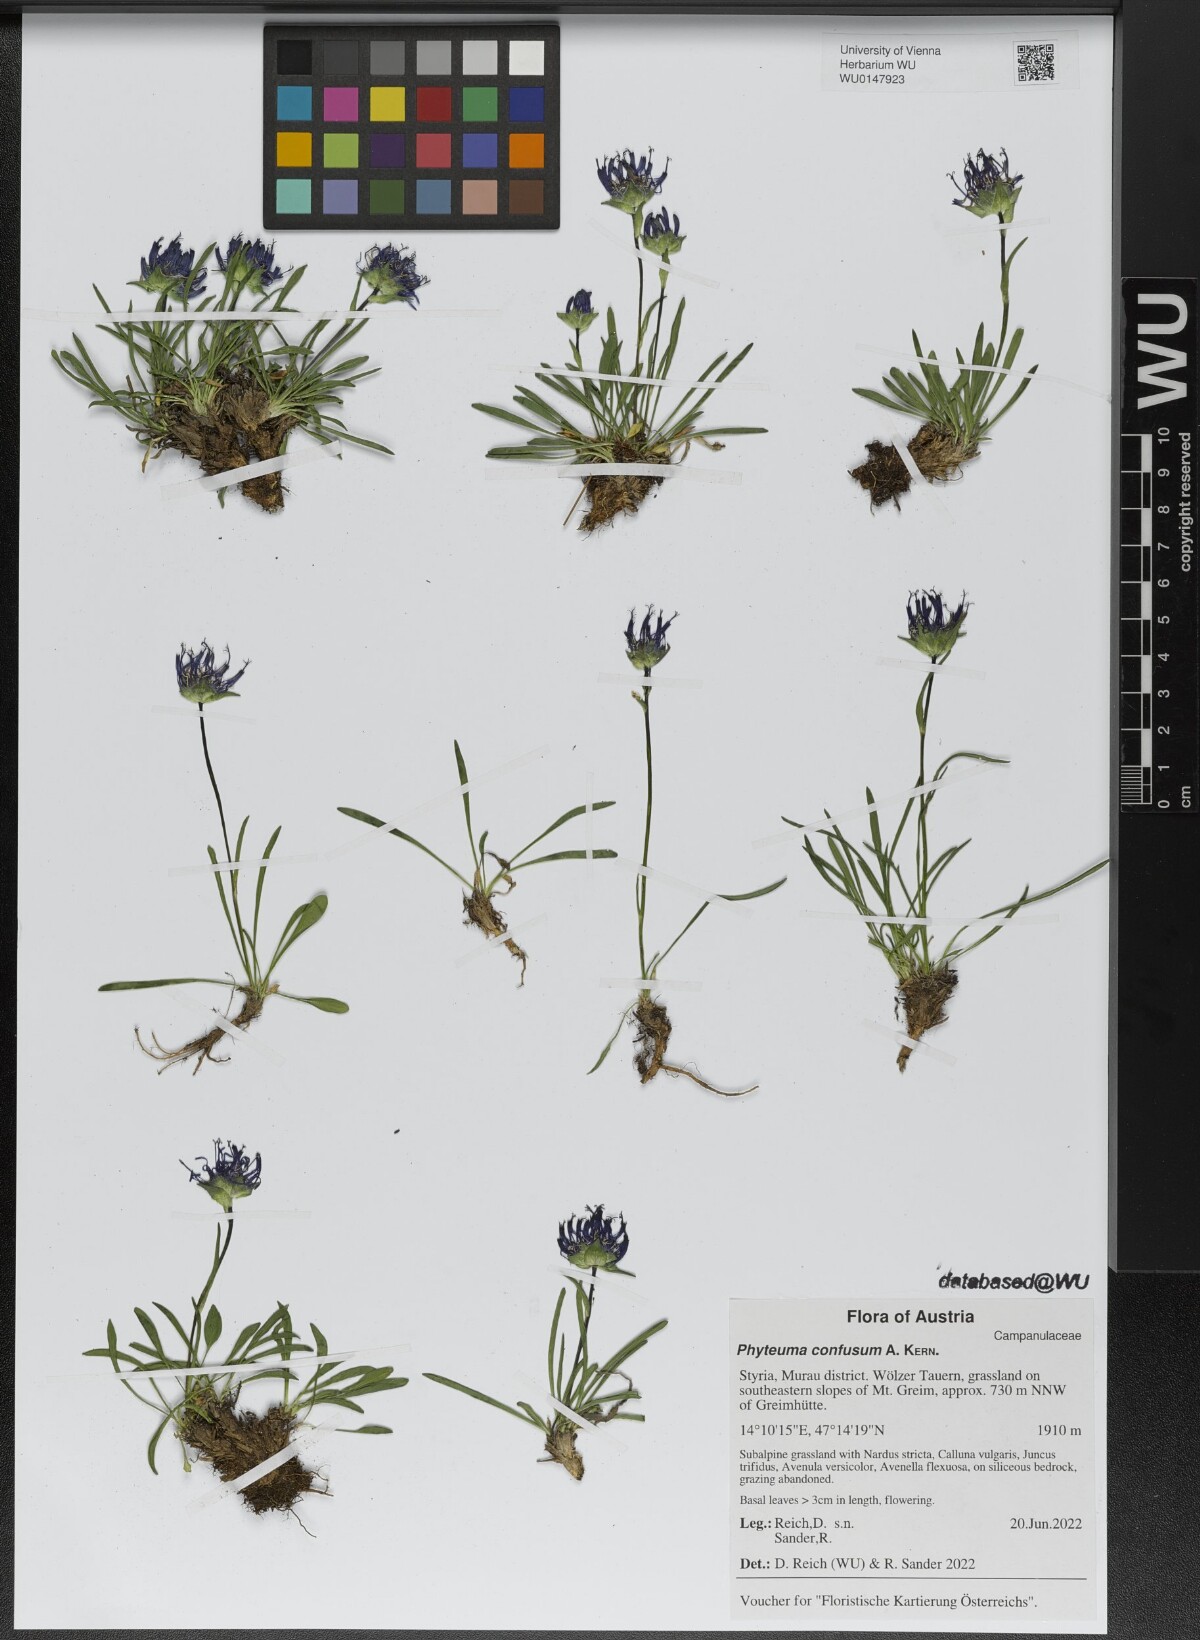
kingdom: Plantae
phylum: Tracheophyta
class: Magnoliopsida
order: Asterales
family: Campanulaceae
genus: Phyteuma
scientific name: Phyteuma confusum
